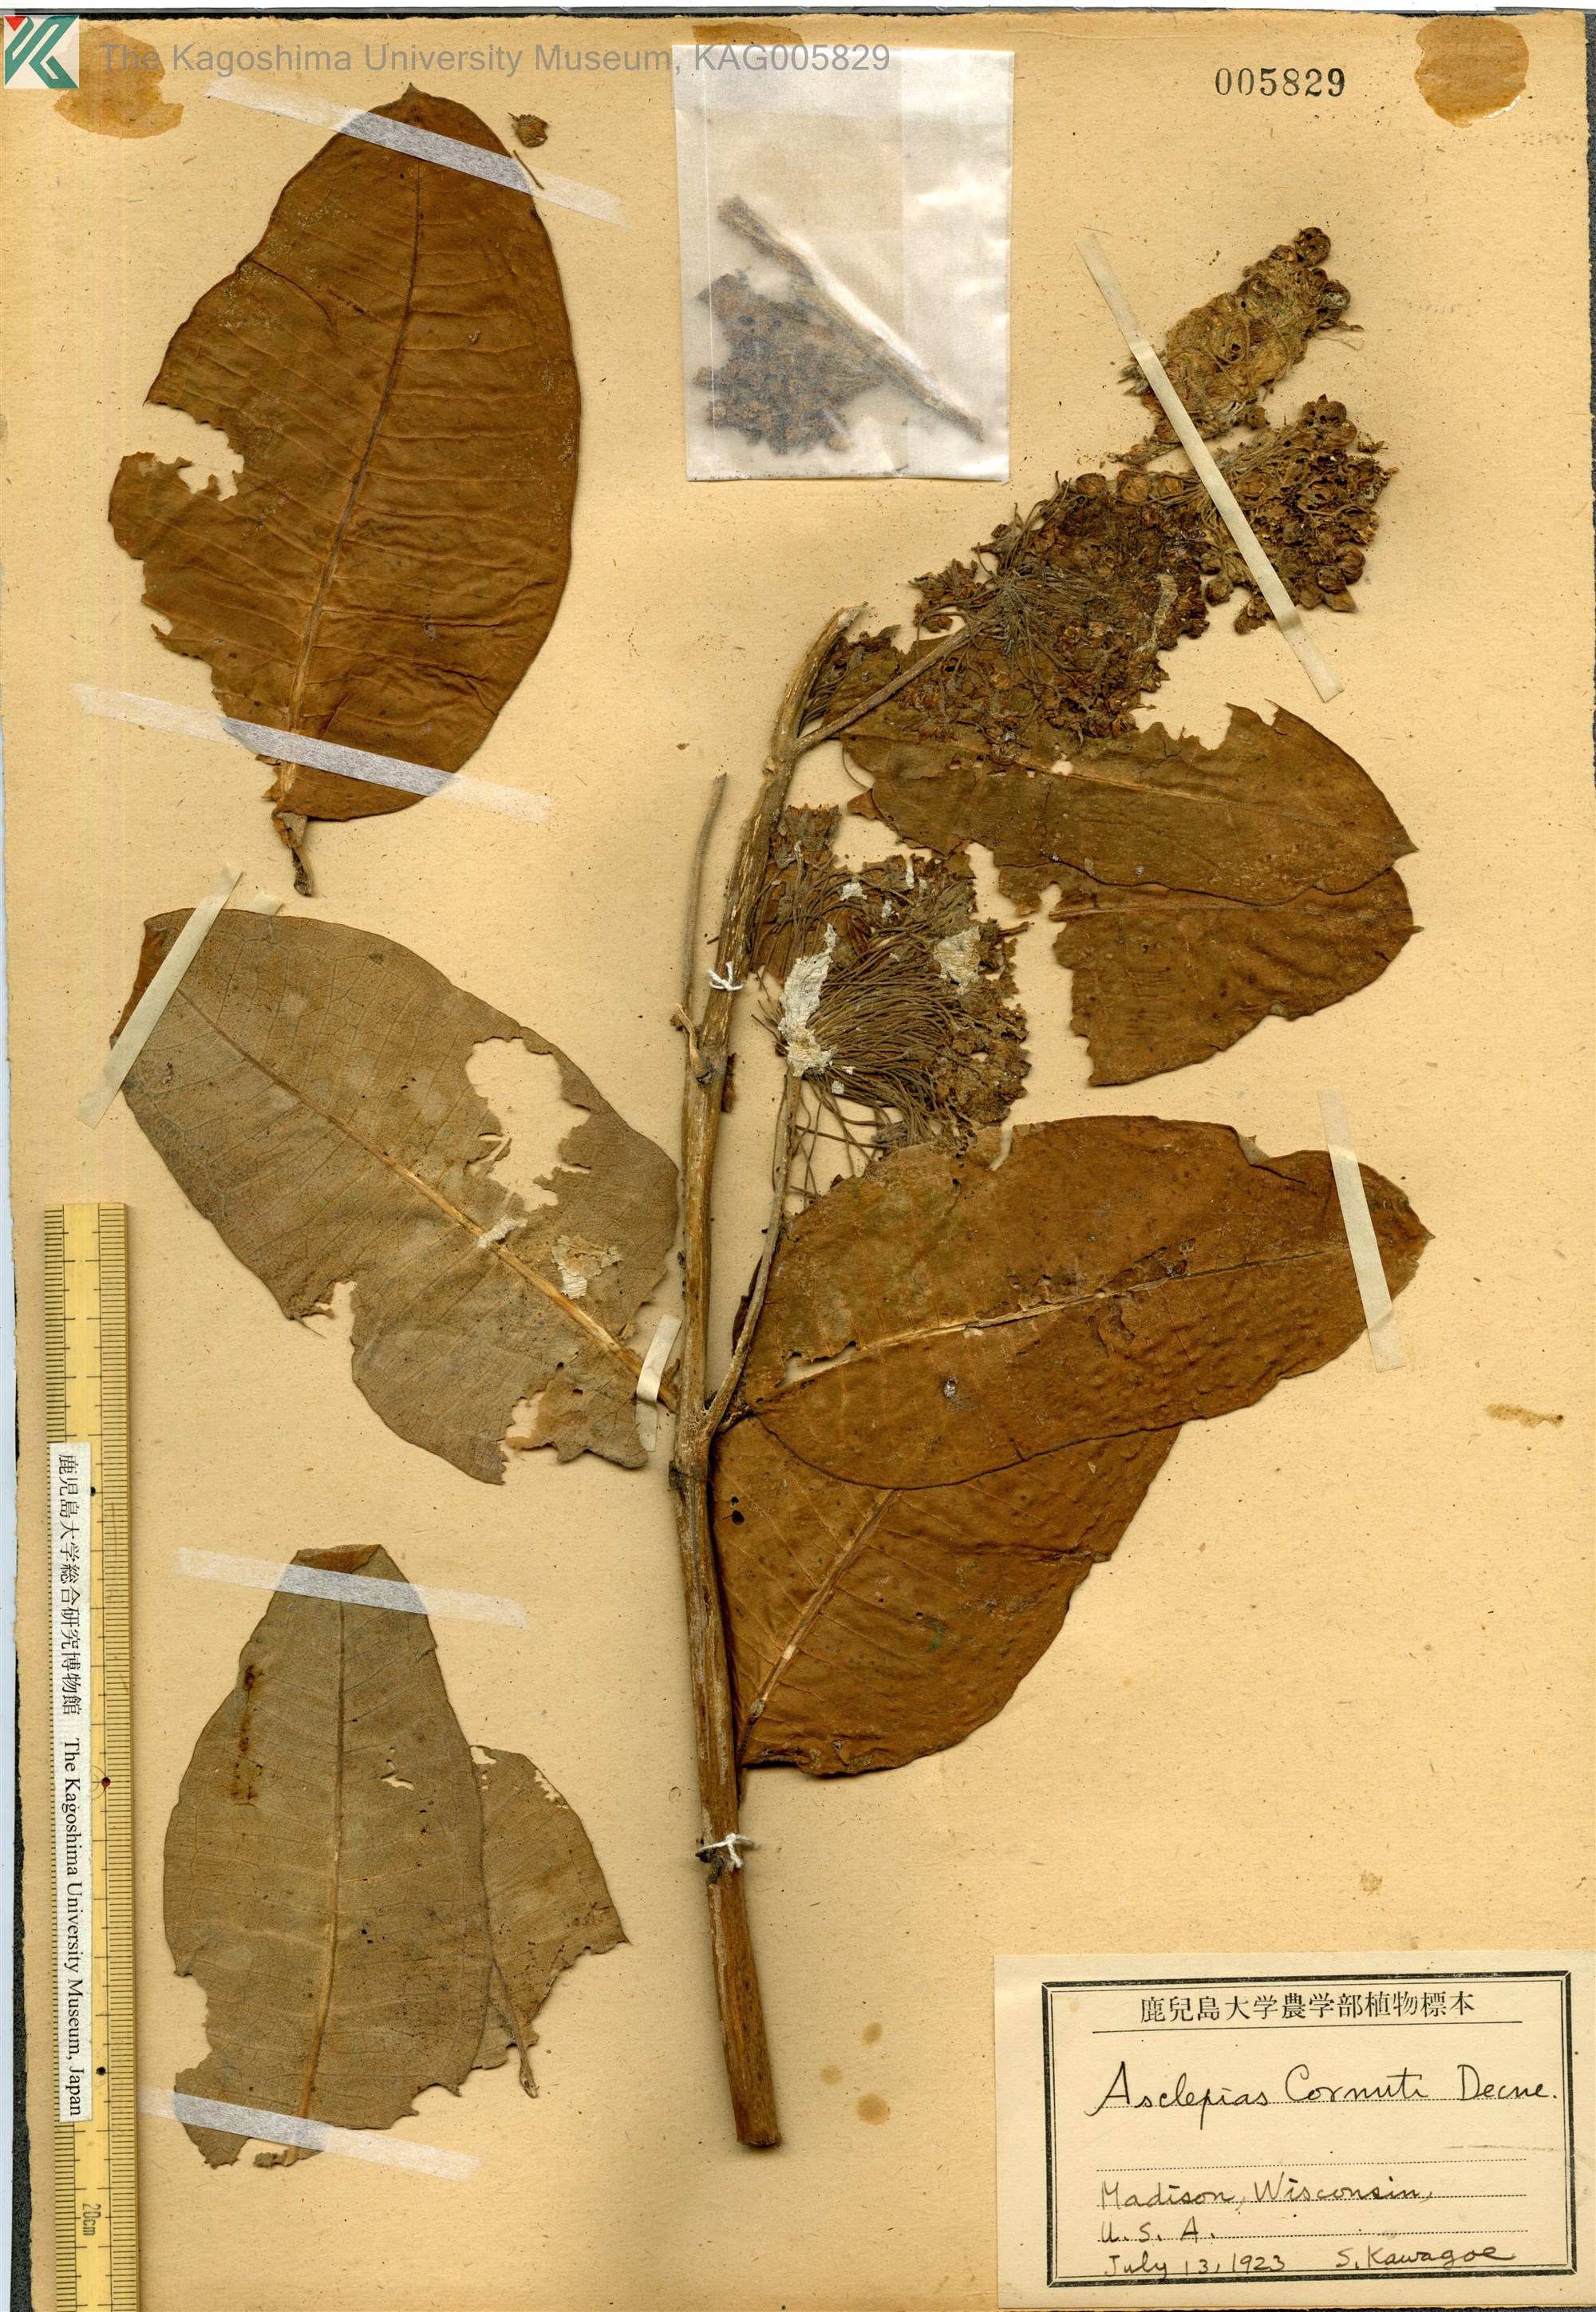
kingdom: Plantae
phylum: Tracheophyta
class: Magnoliopsida
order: Gentianales
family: Apocynaceae
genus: Asclepias
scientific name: Asclepias syriaca
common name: Common milkweed
